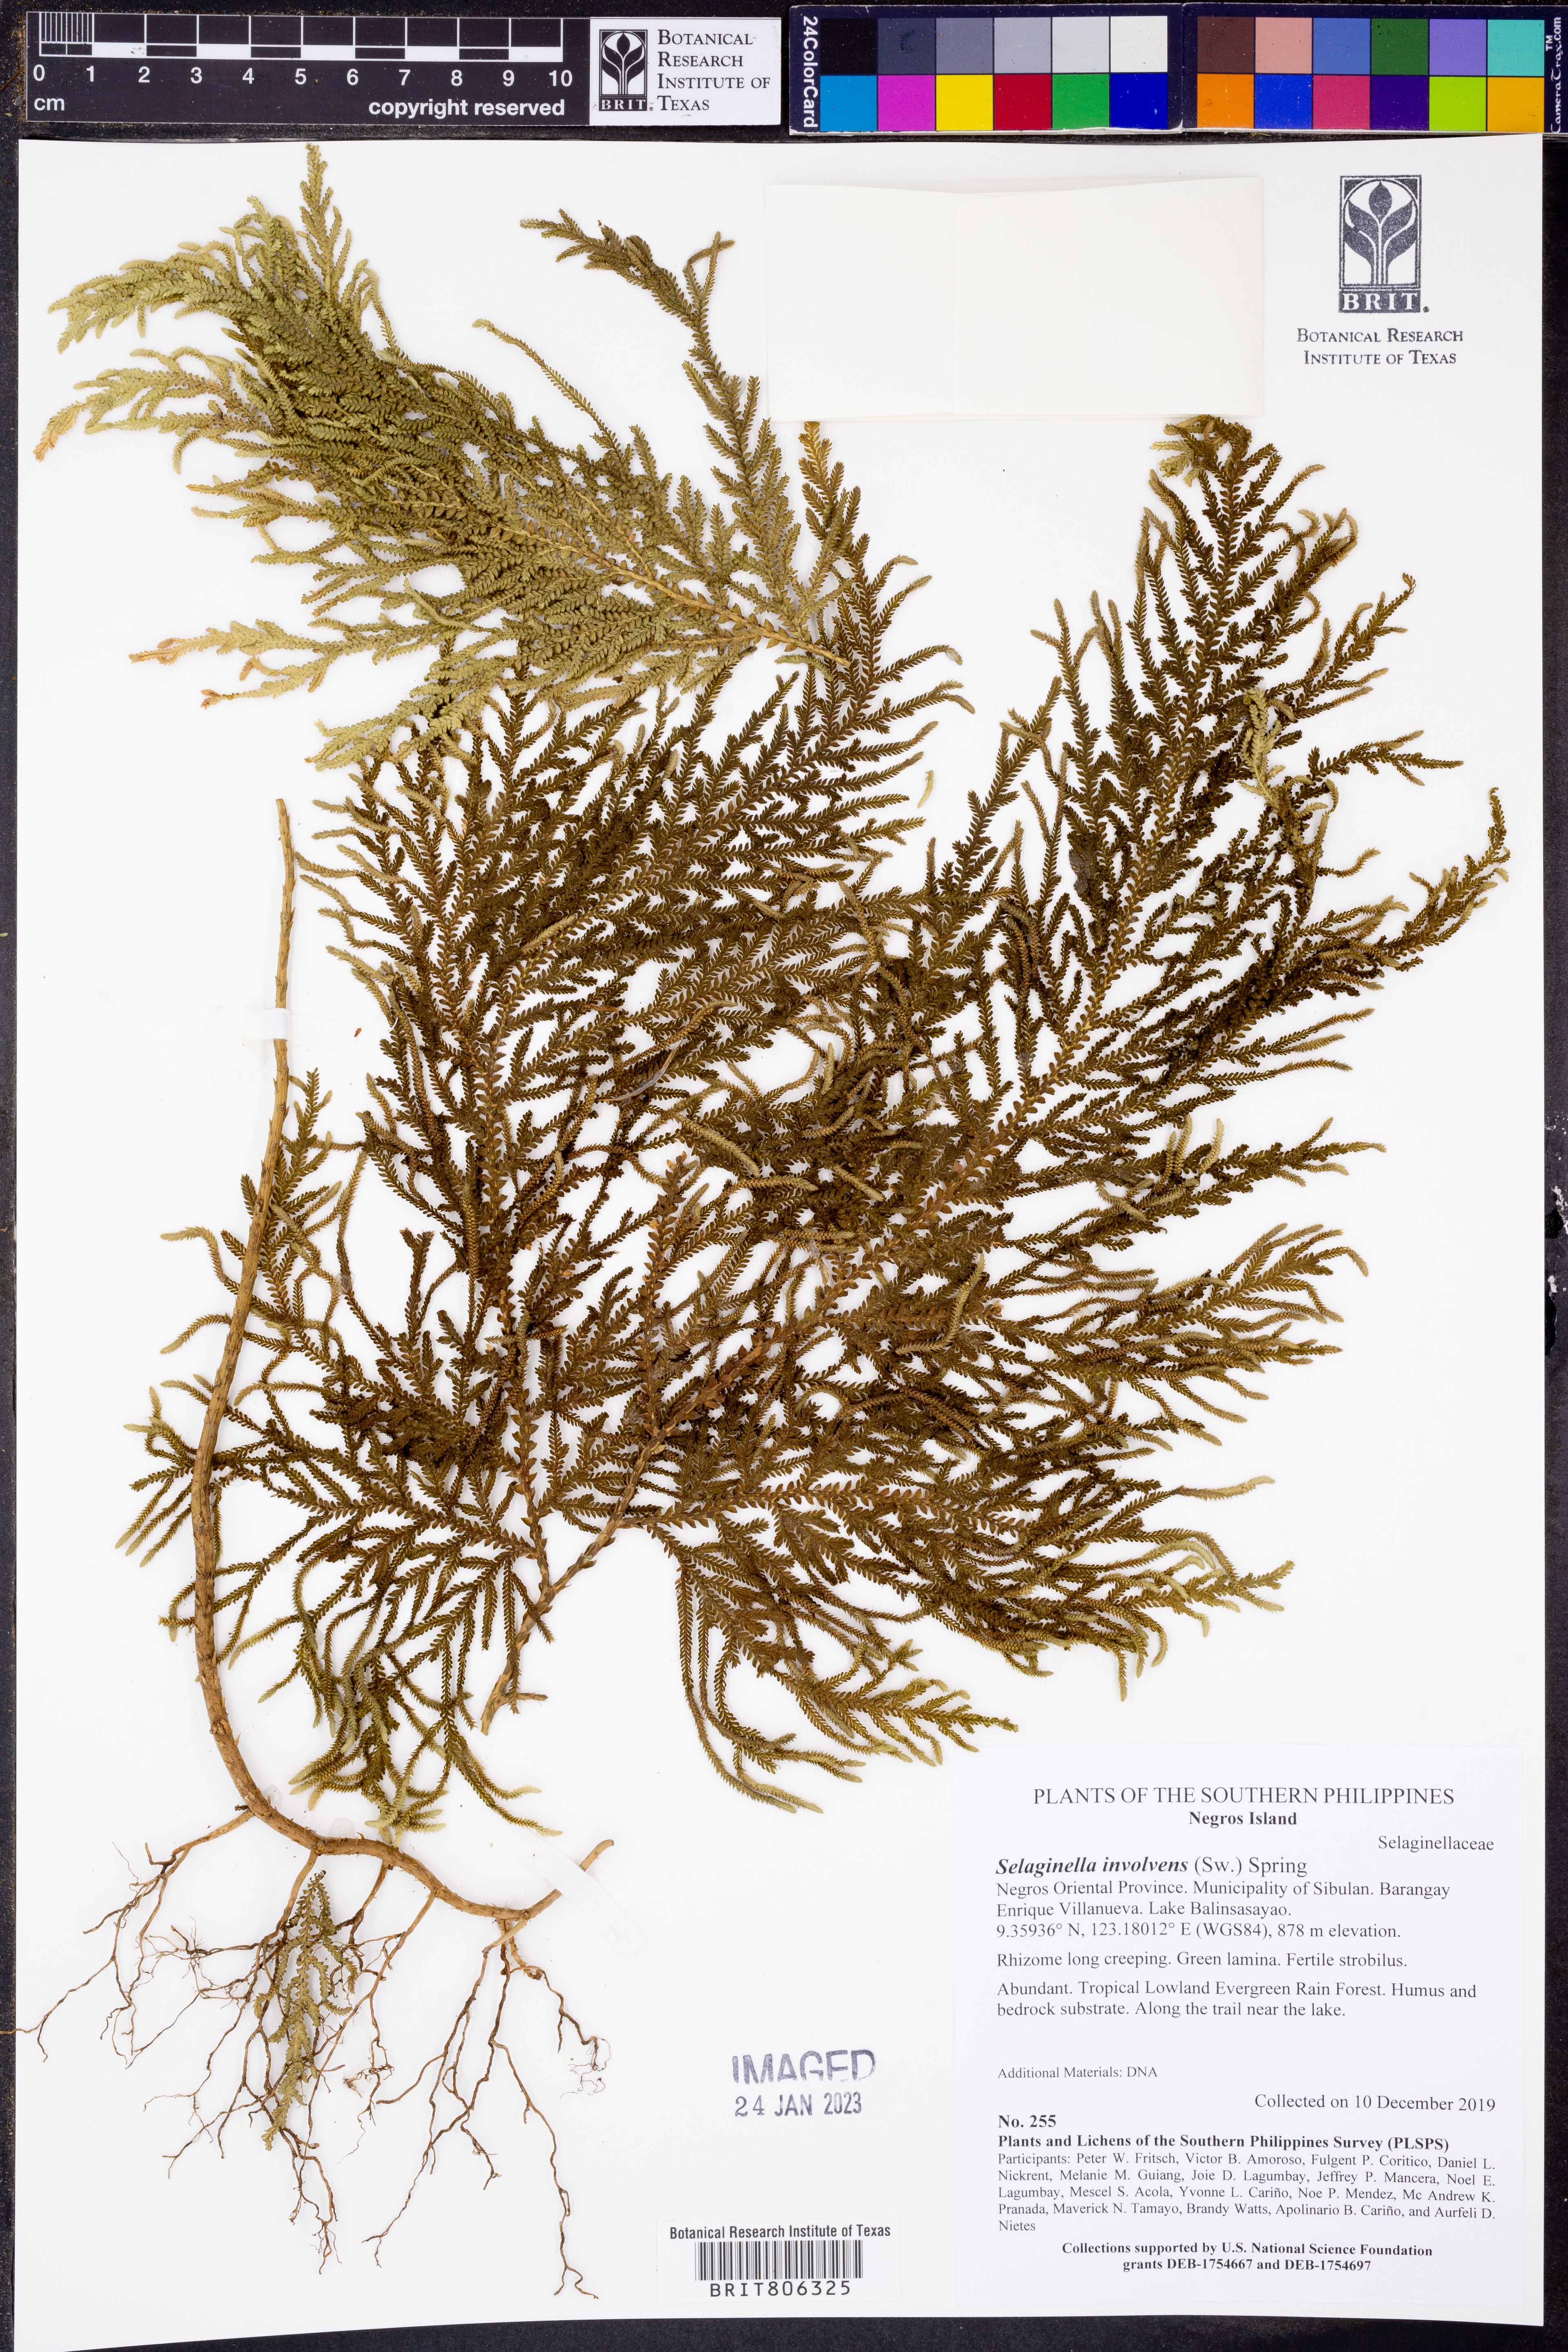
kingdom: Plantae
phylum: Tracheophyta
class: Lycopodiopsida
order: Selaginellales
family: Selaginellaceae
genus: Selaginella
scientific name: Selaginella involvens
